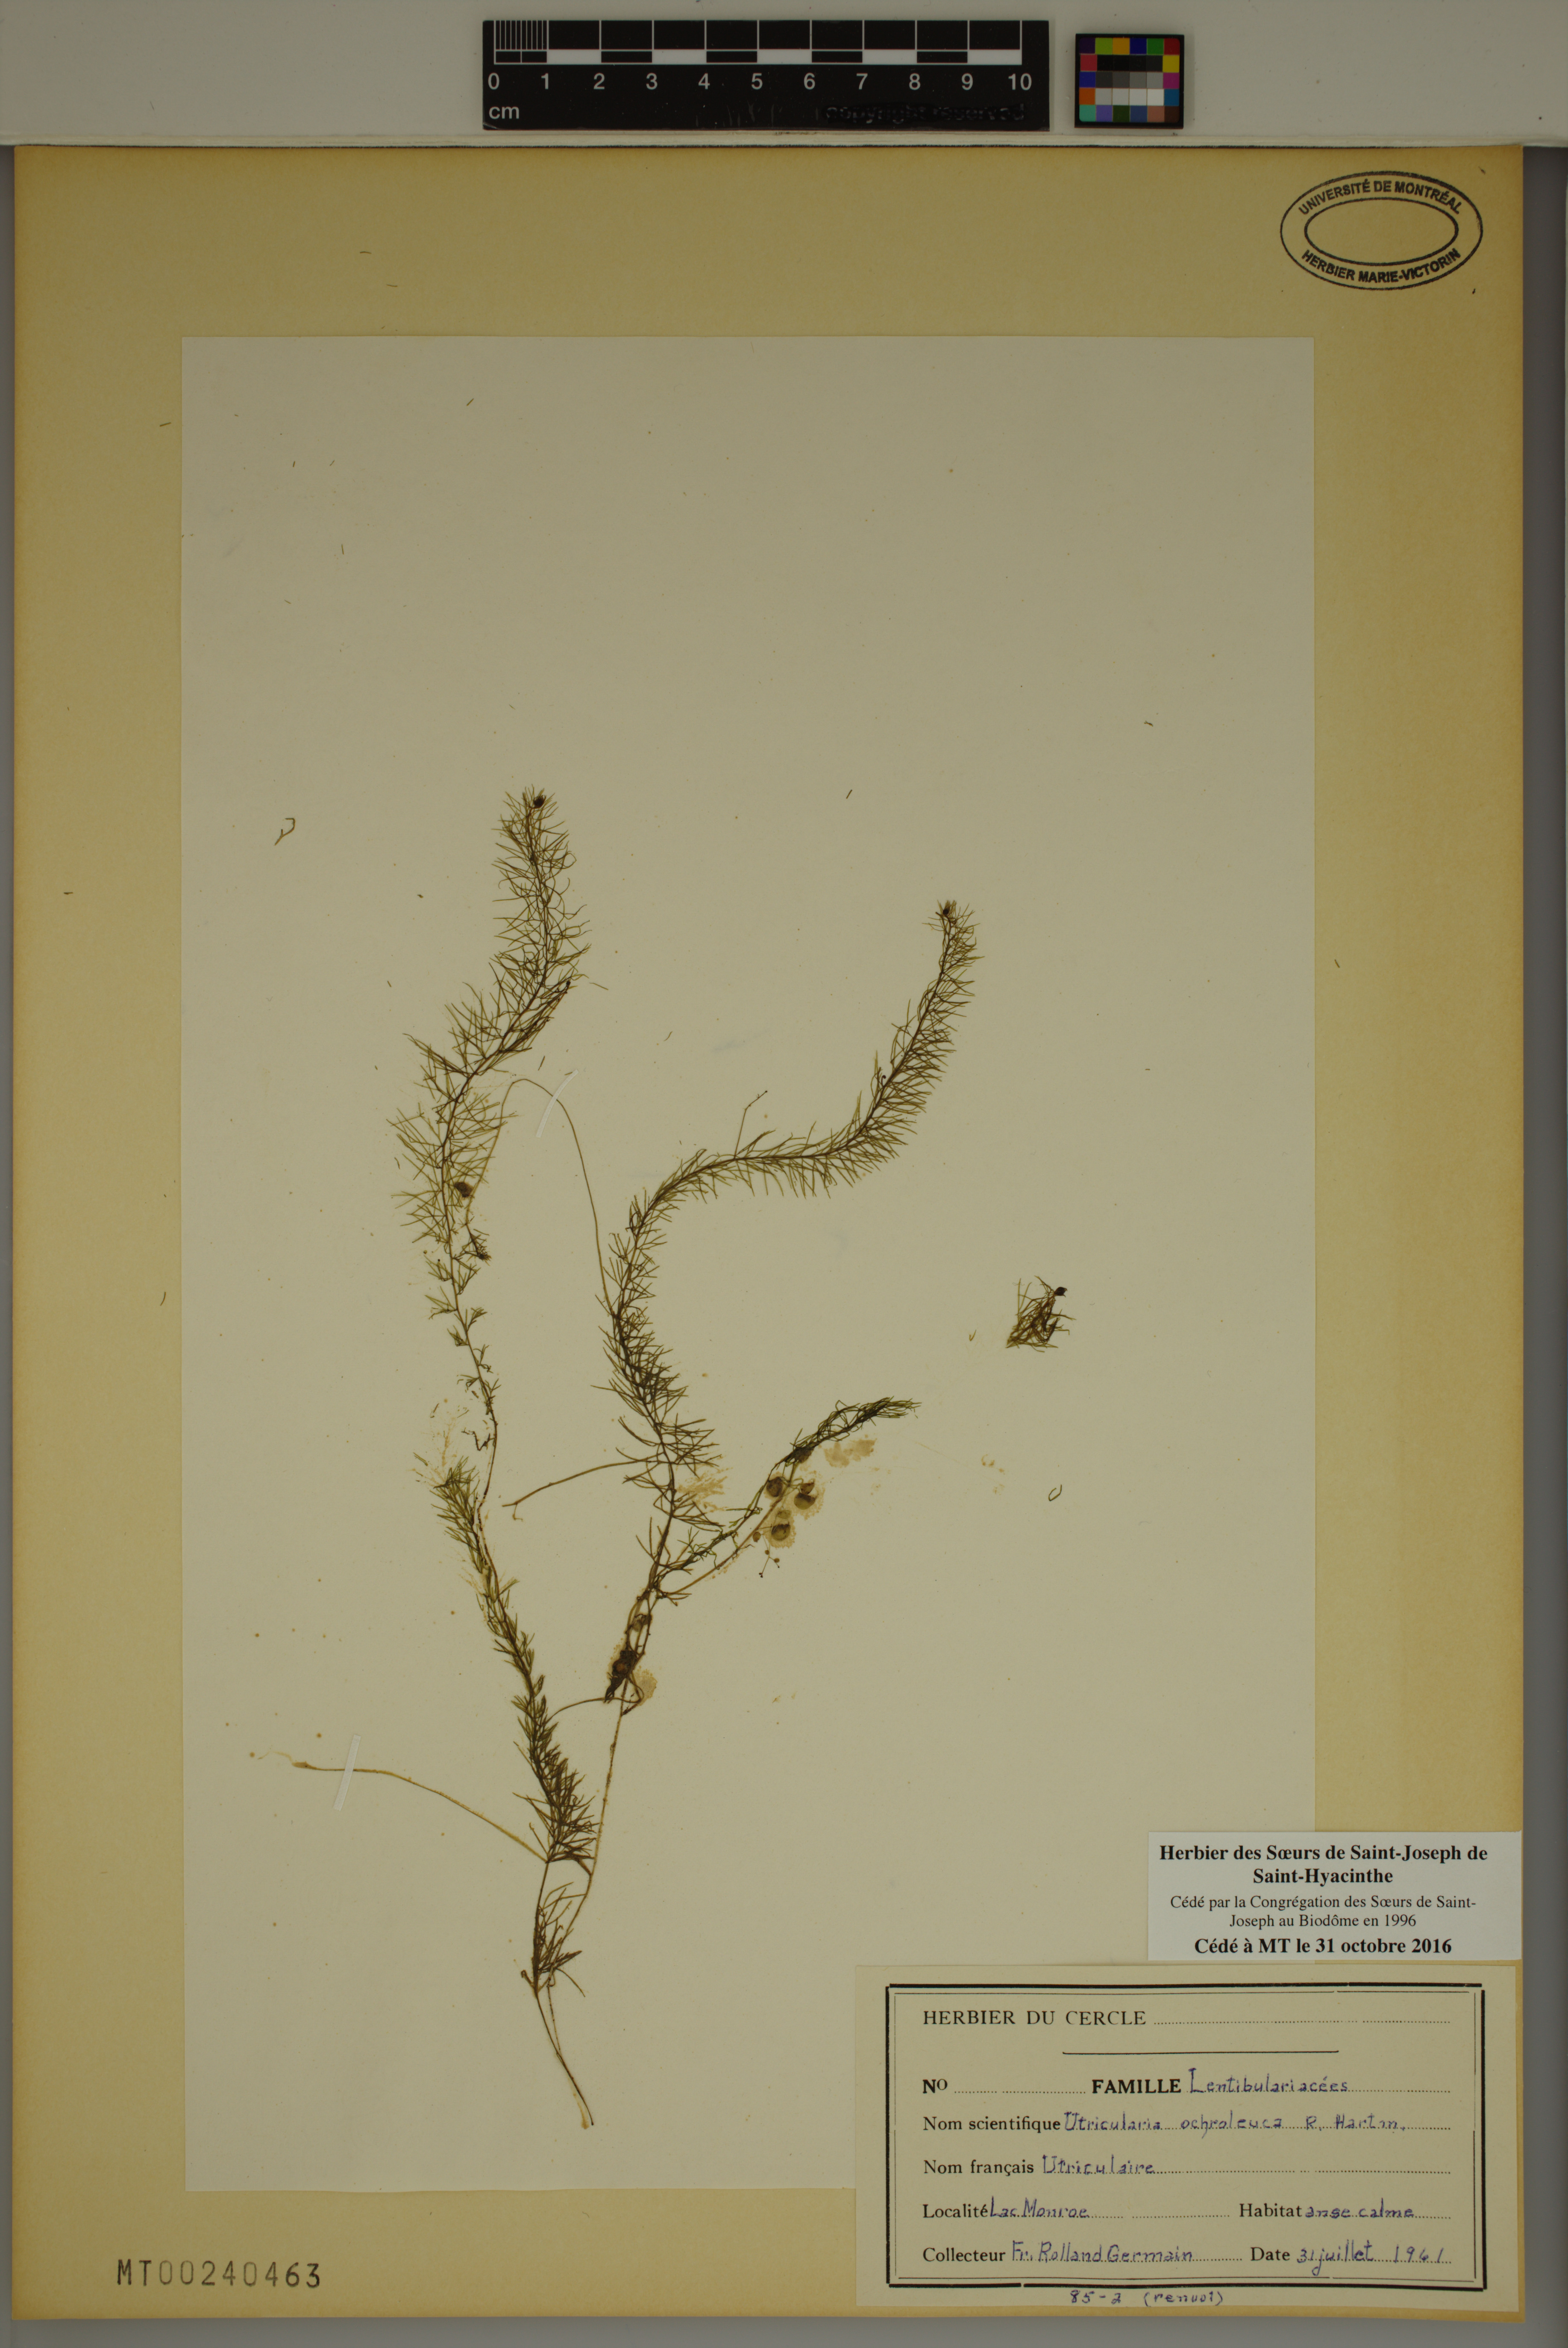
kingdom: Plantae
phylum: Tracheophyta
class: Magnoliopsida
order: Lamiales
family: Lentibulariaceae
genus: Utricularia
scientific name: Utricularia ochroleuca
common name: Pale bladderwort
